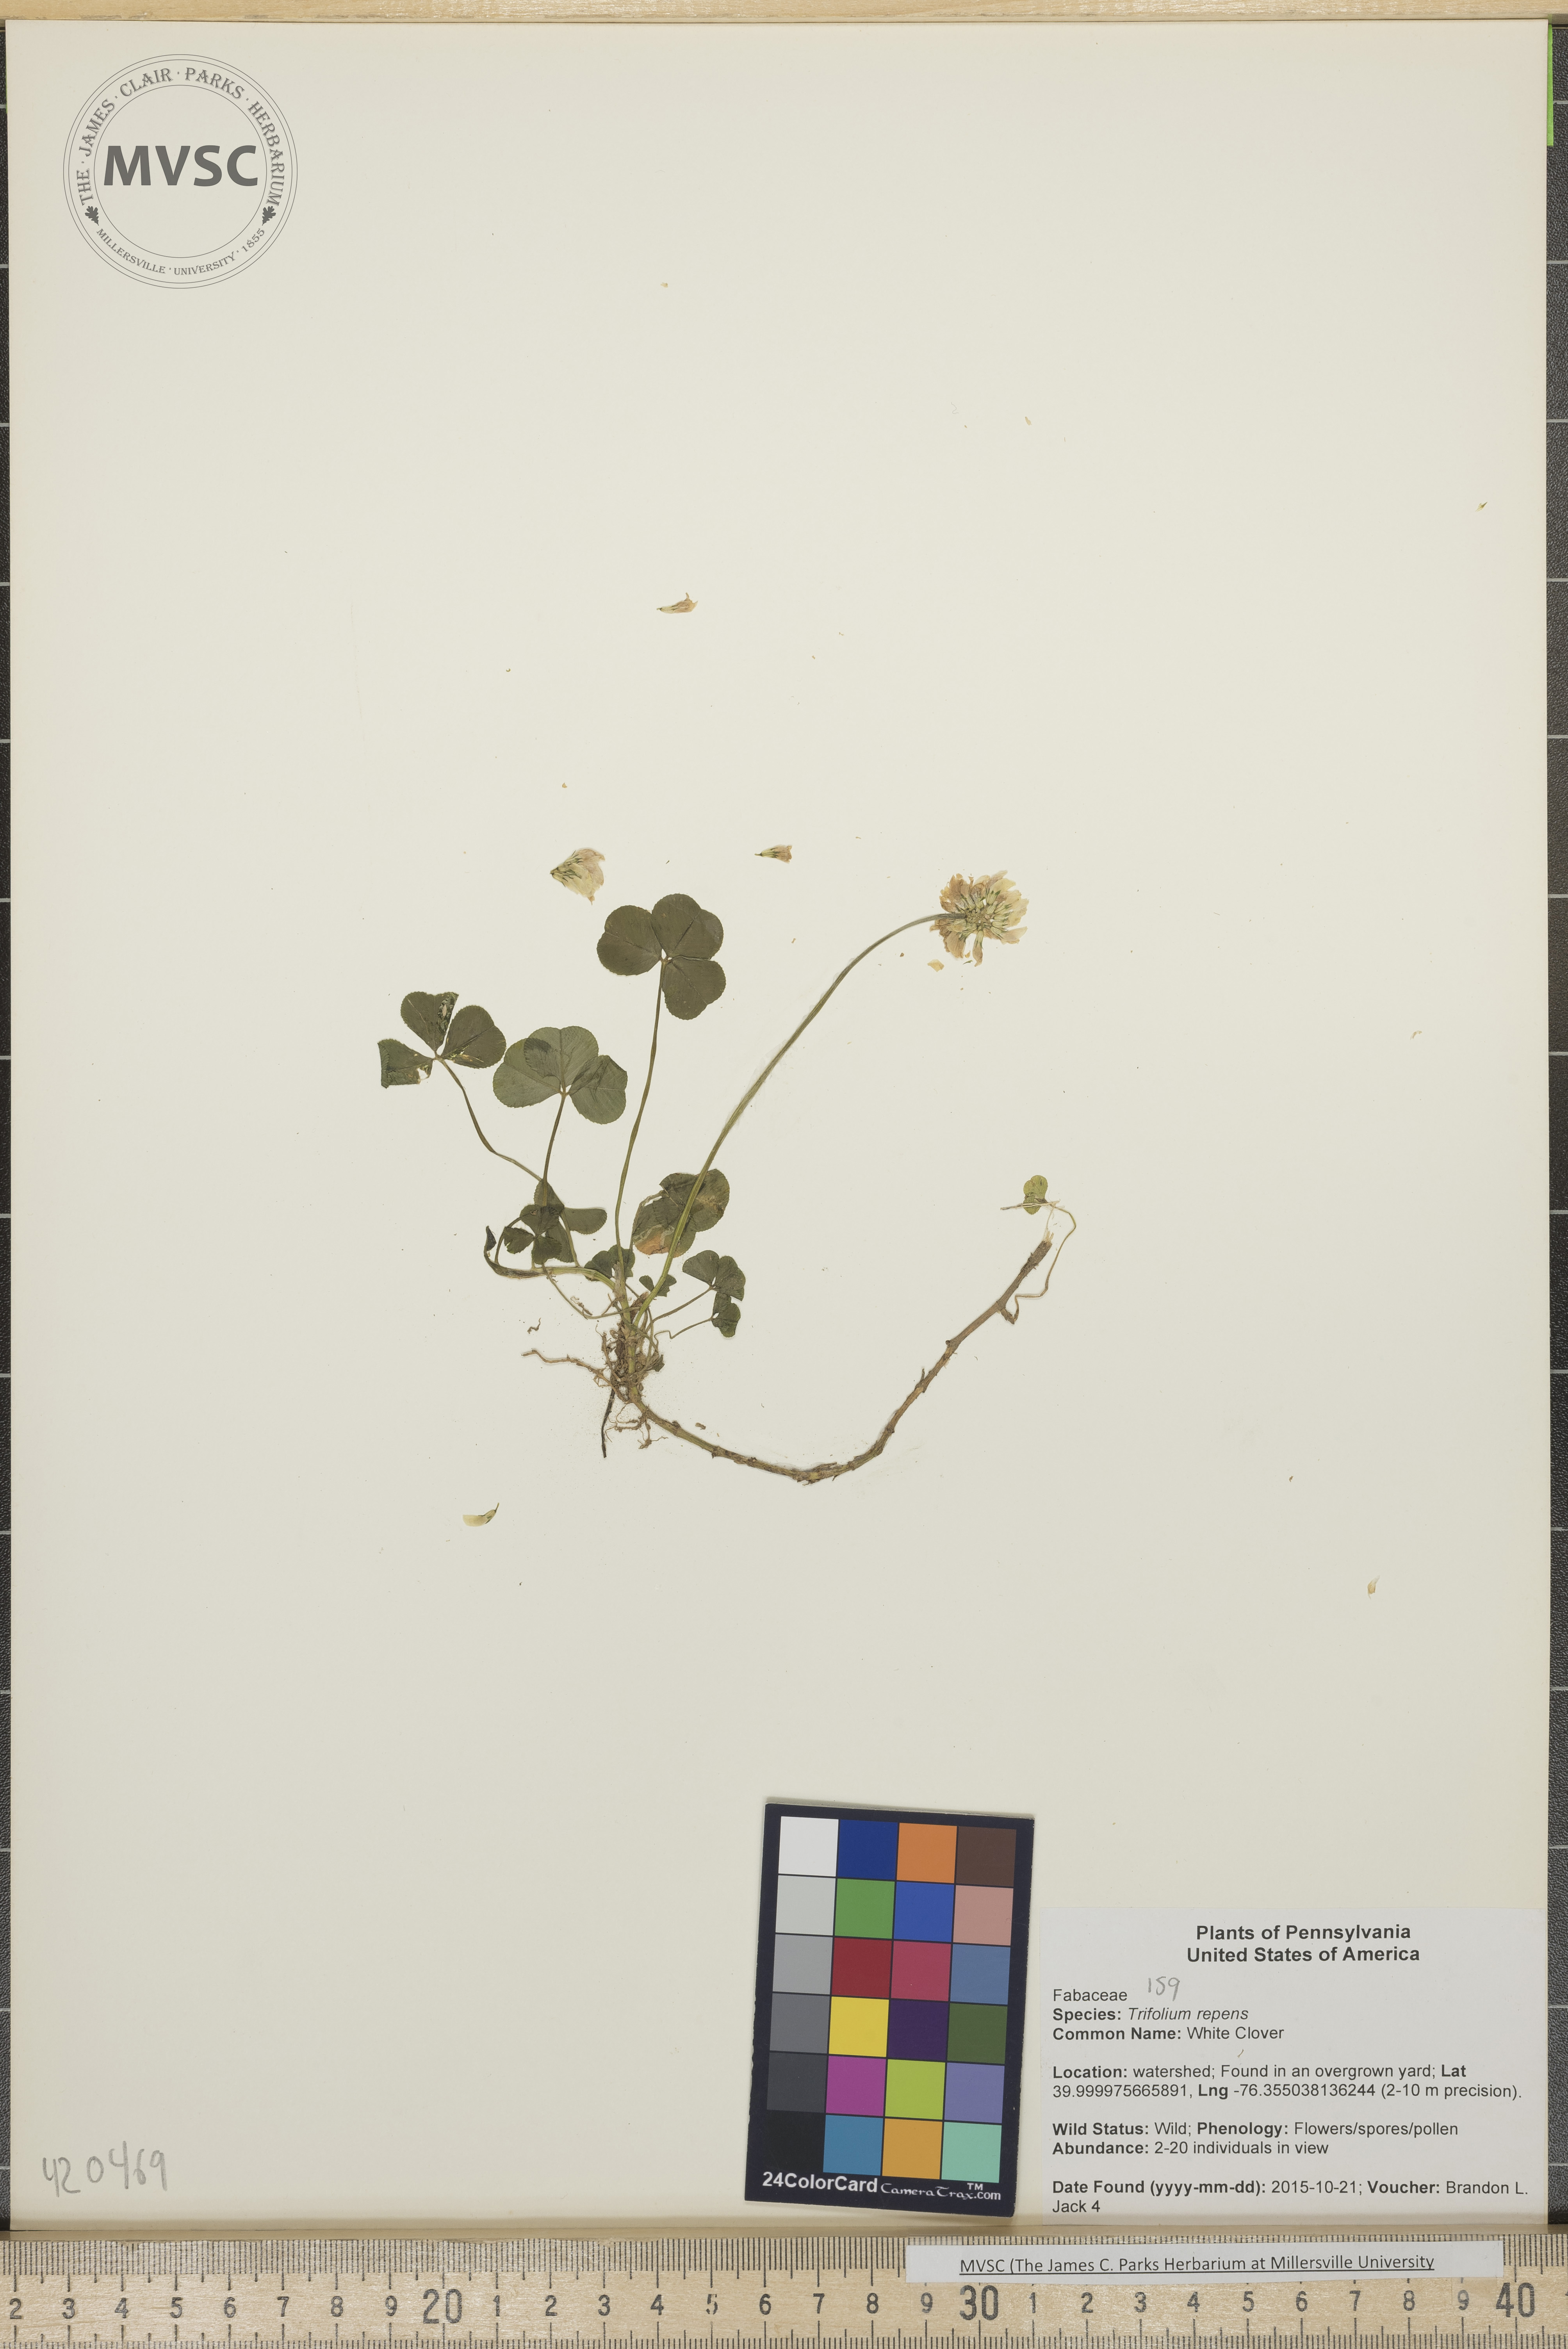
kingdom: Plantae
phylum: Tracheophyta
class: Magnoliopsida
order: Fabales
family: Fabaceae
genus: Trifolium
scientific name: Trifolium repens
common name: White Clover
